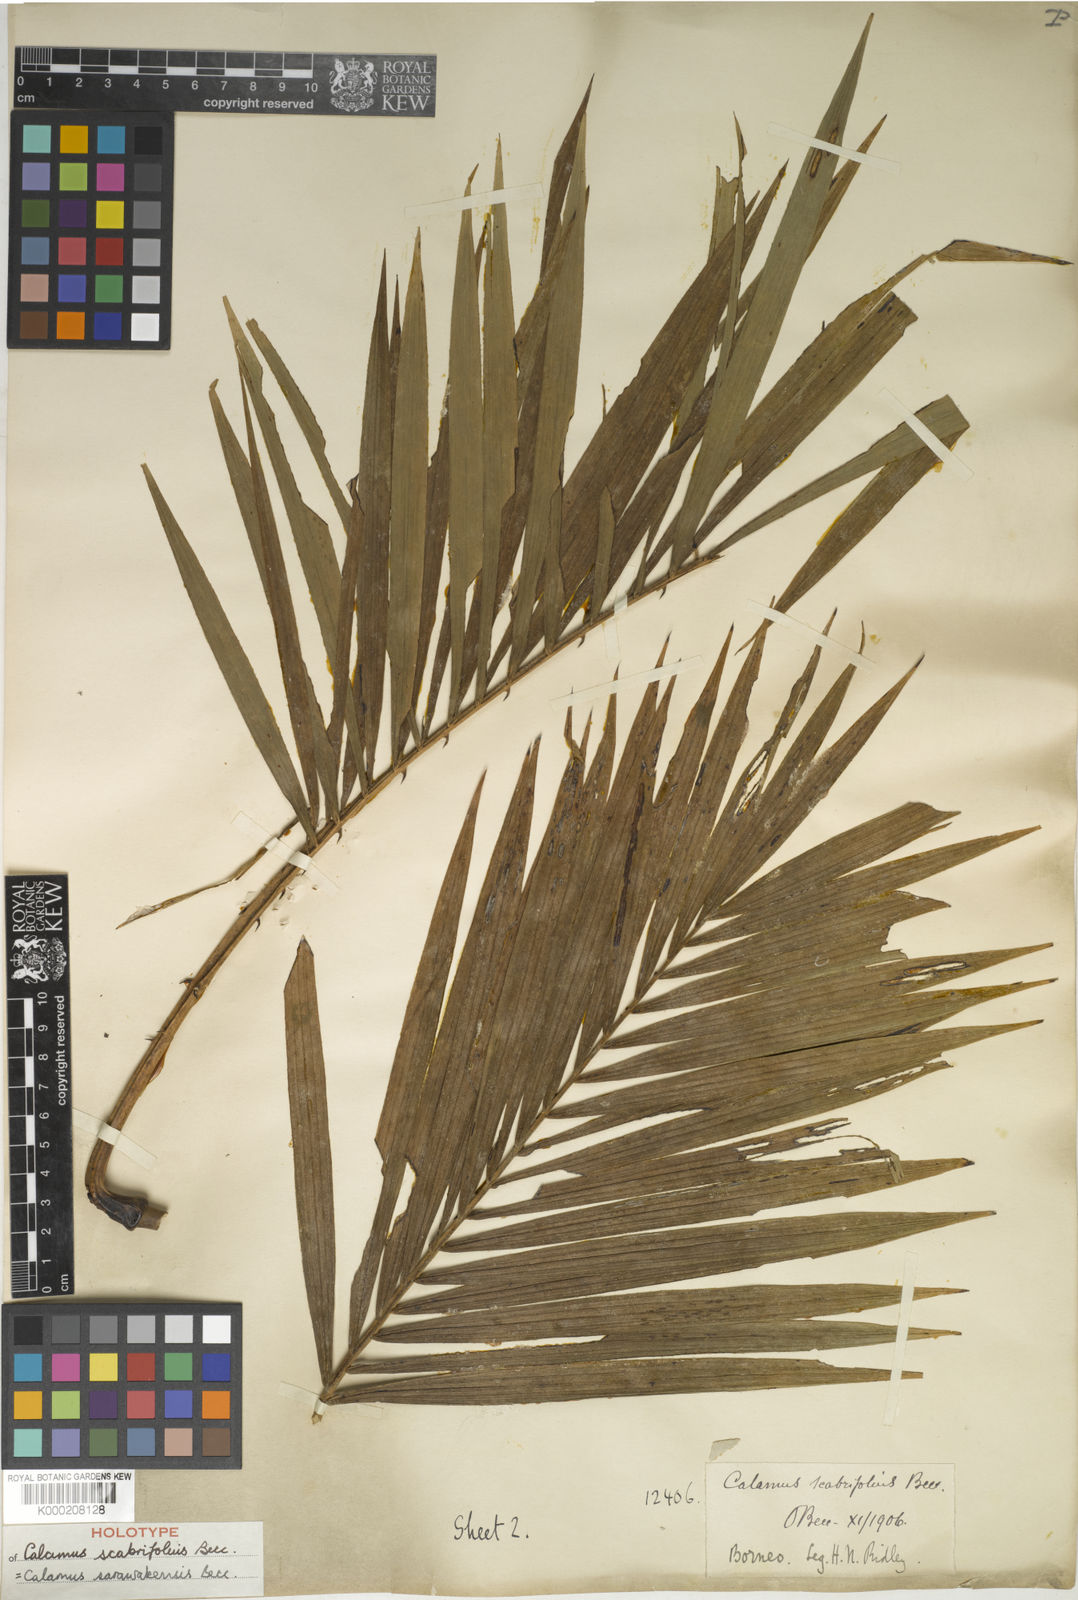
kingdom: Plantae
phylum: Tracheophyta
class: Liliopsida
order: Arecales
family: Arecaceae
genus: Calamus
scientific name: Calamus sarawakensis
